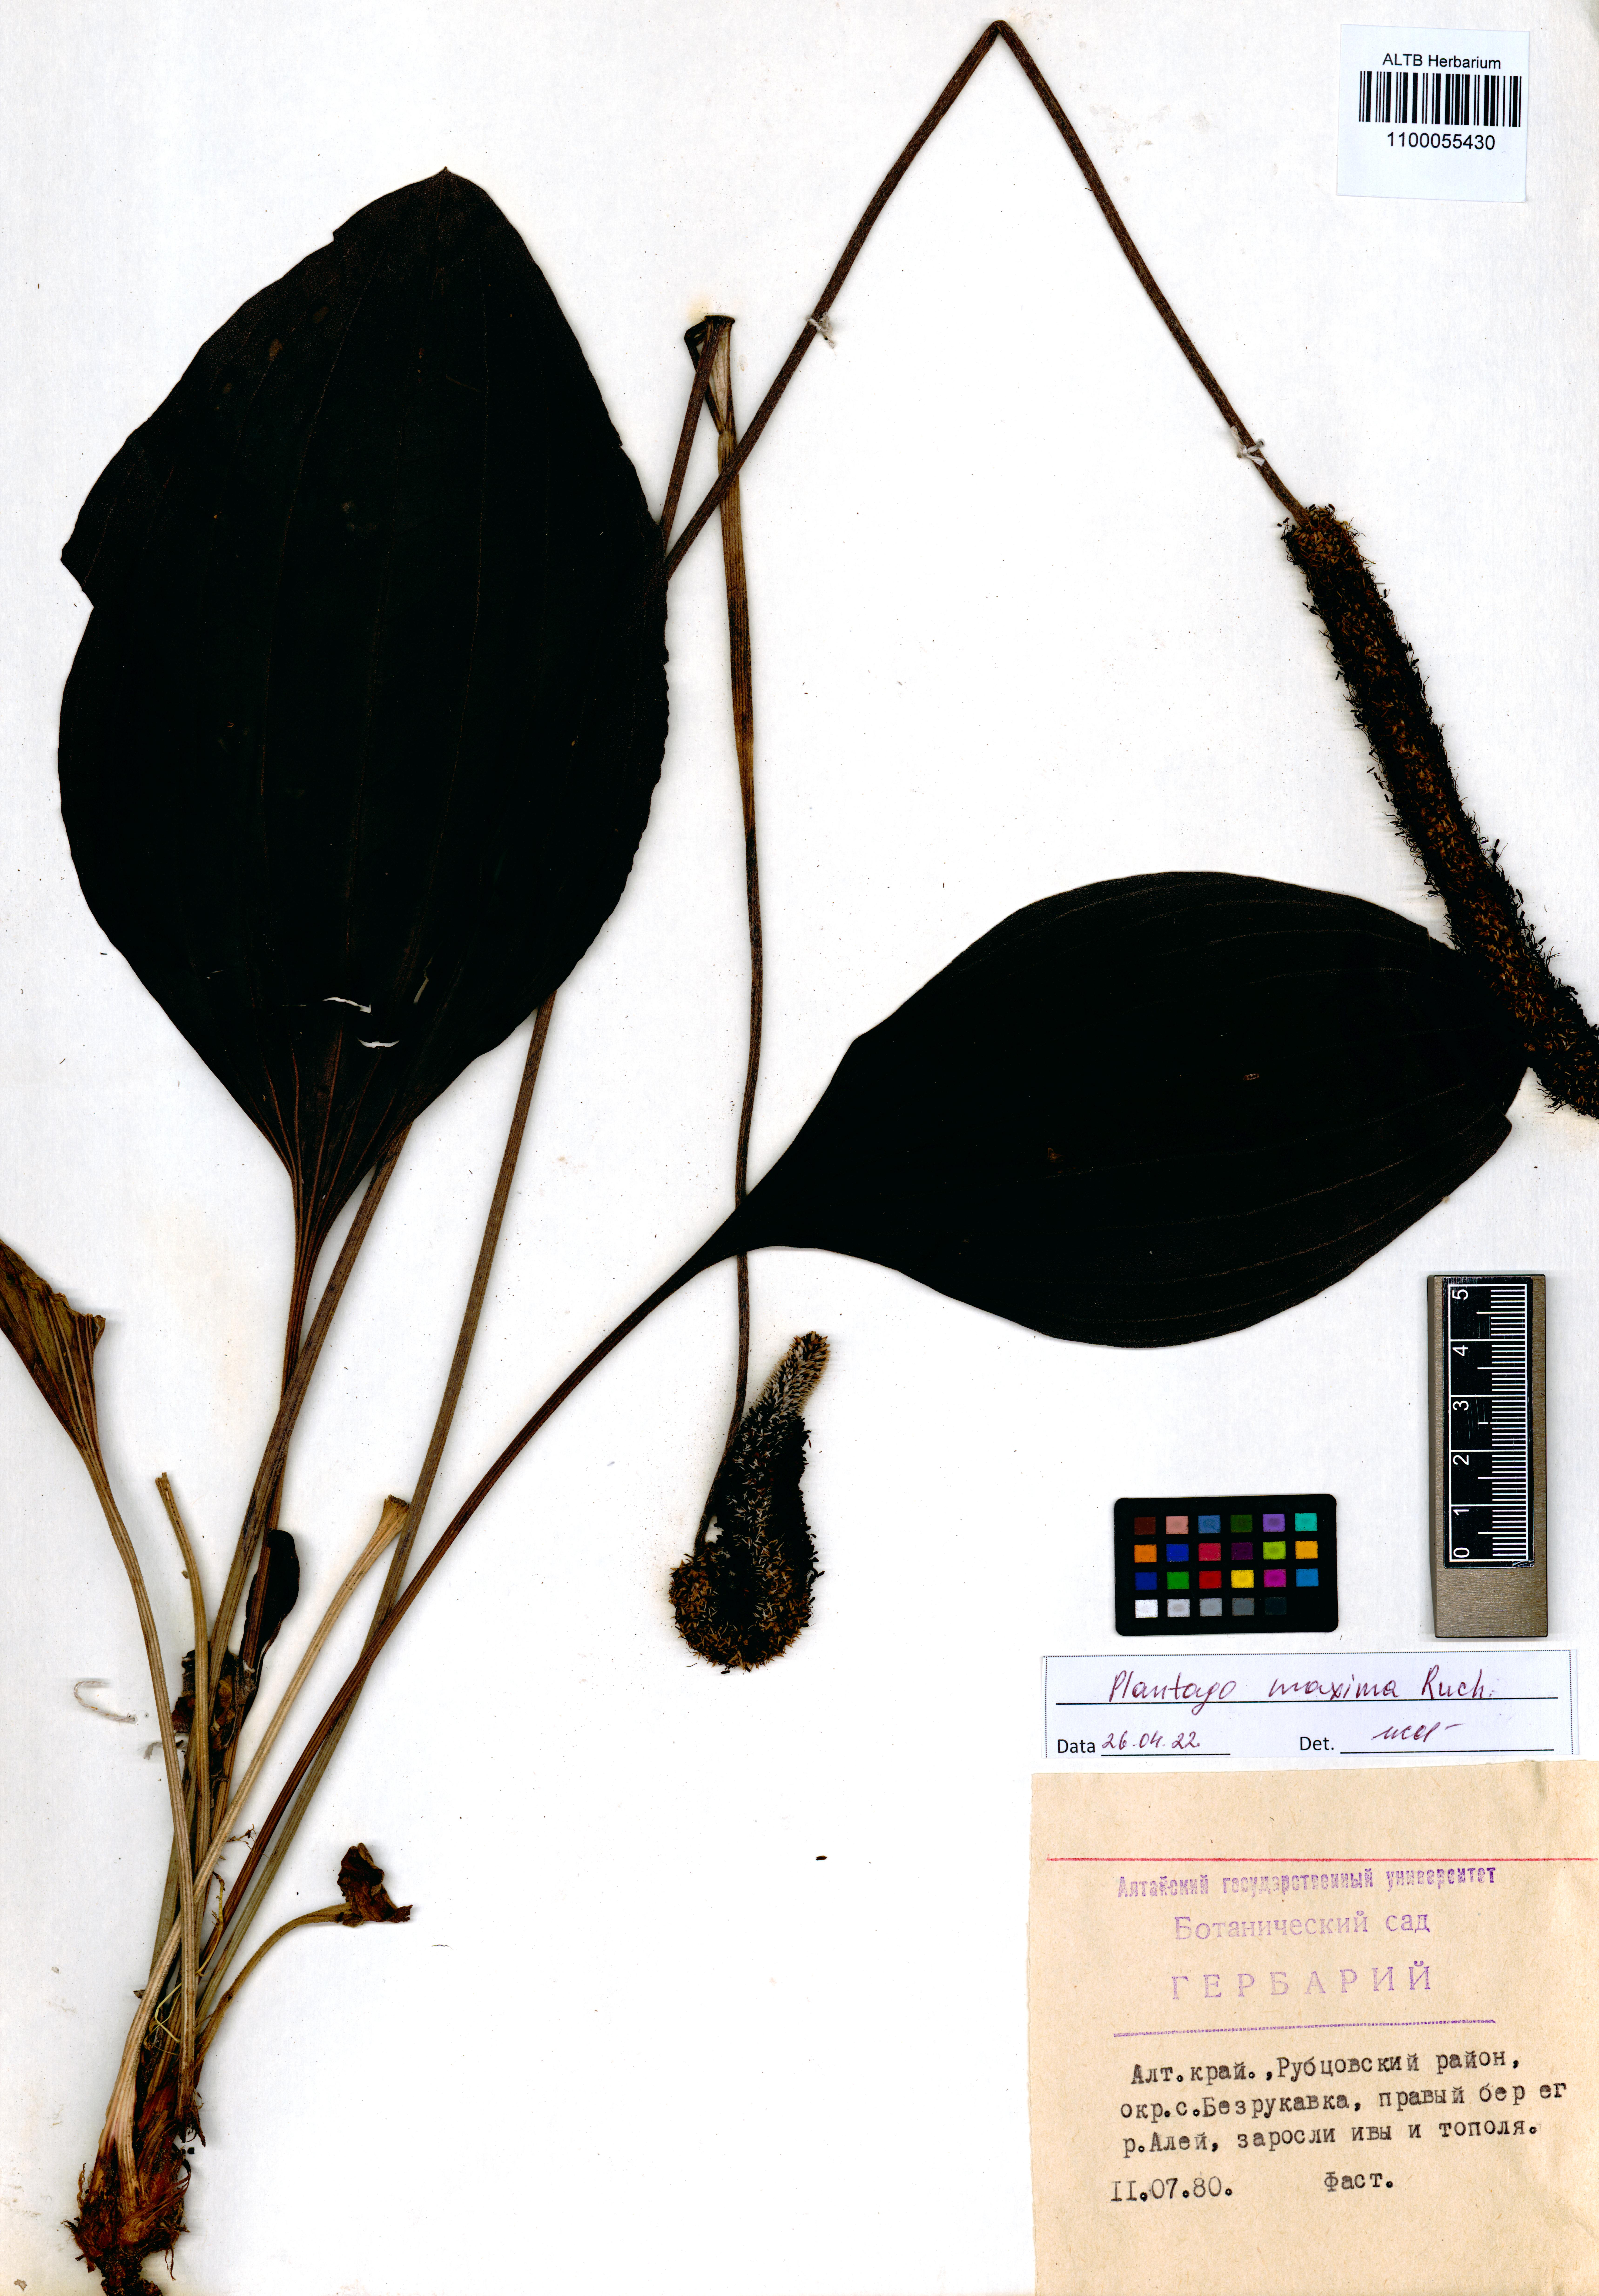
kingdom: Plantae
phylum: Tracheophyta
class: Magnoliopsida
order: Lamiales
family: Plantaginaceae
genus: Plantago
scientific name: Plantago maxima
